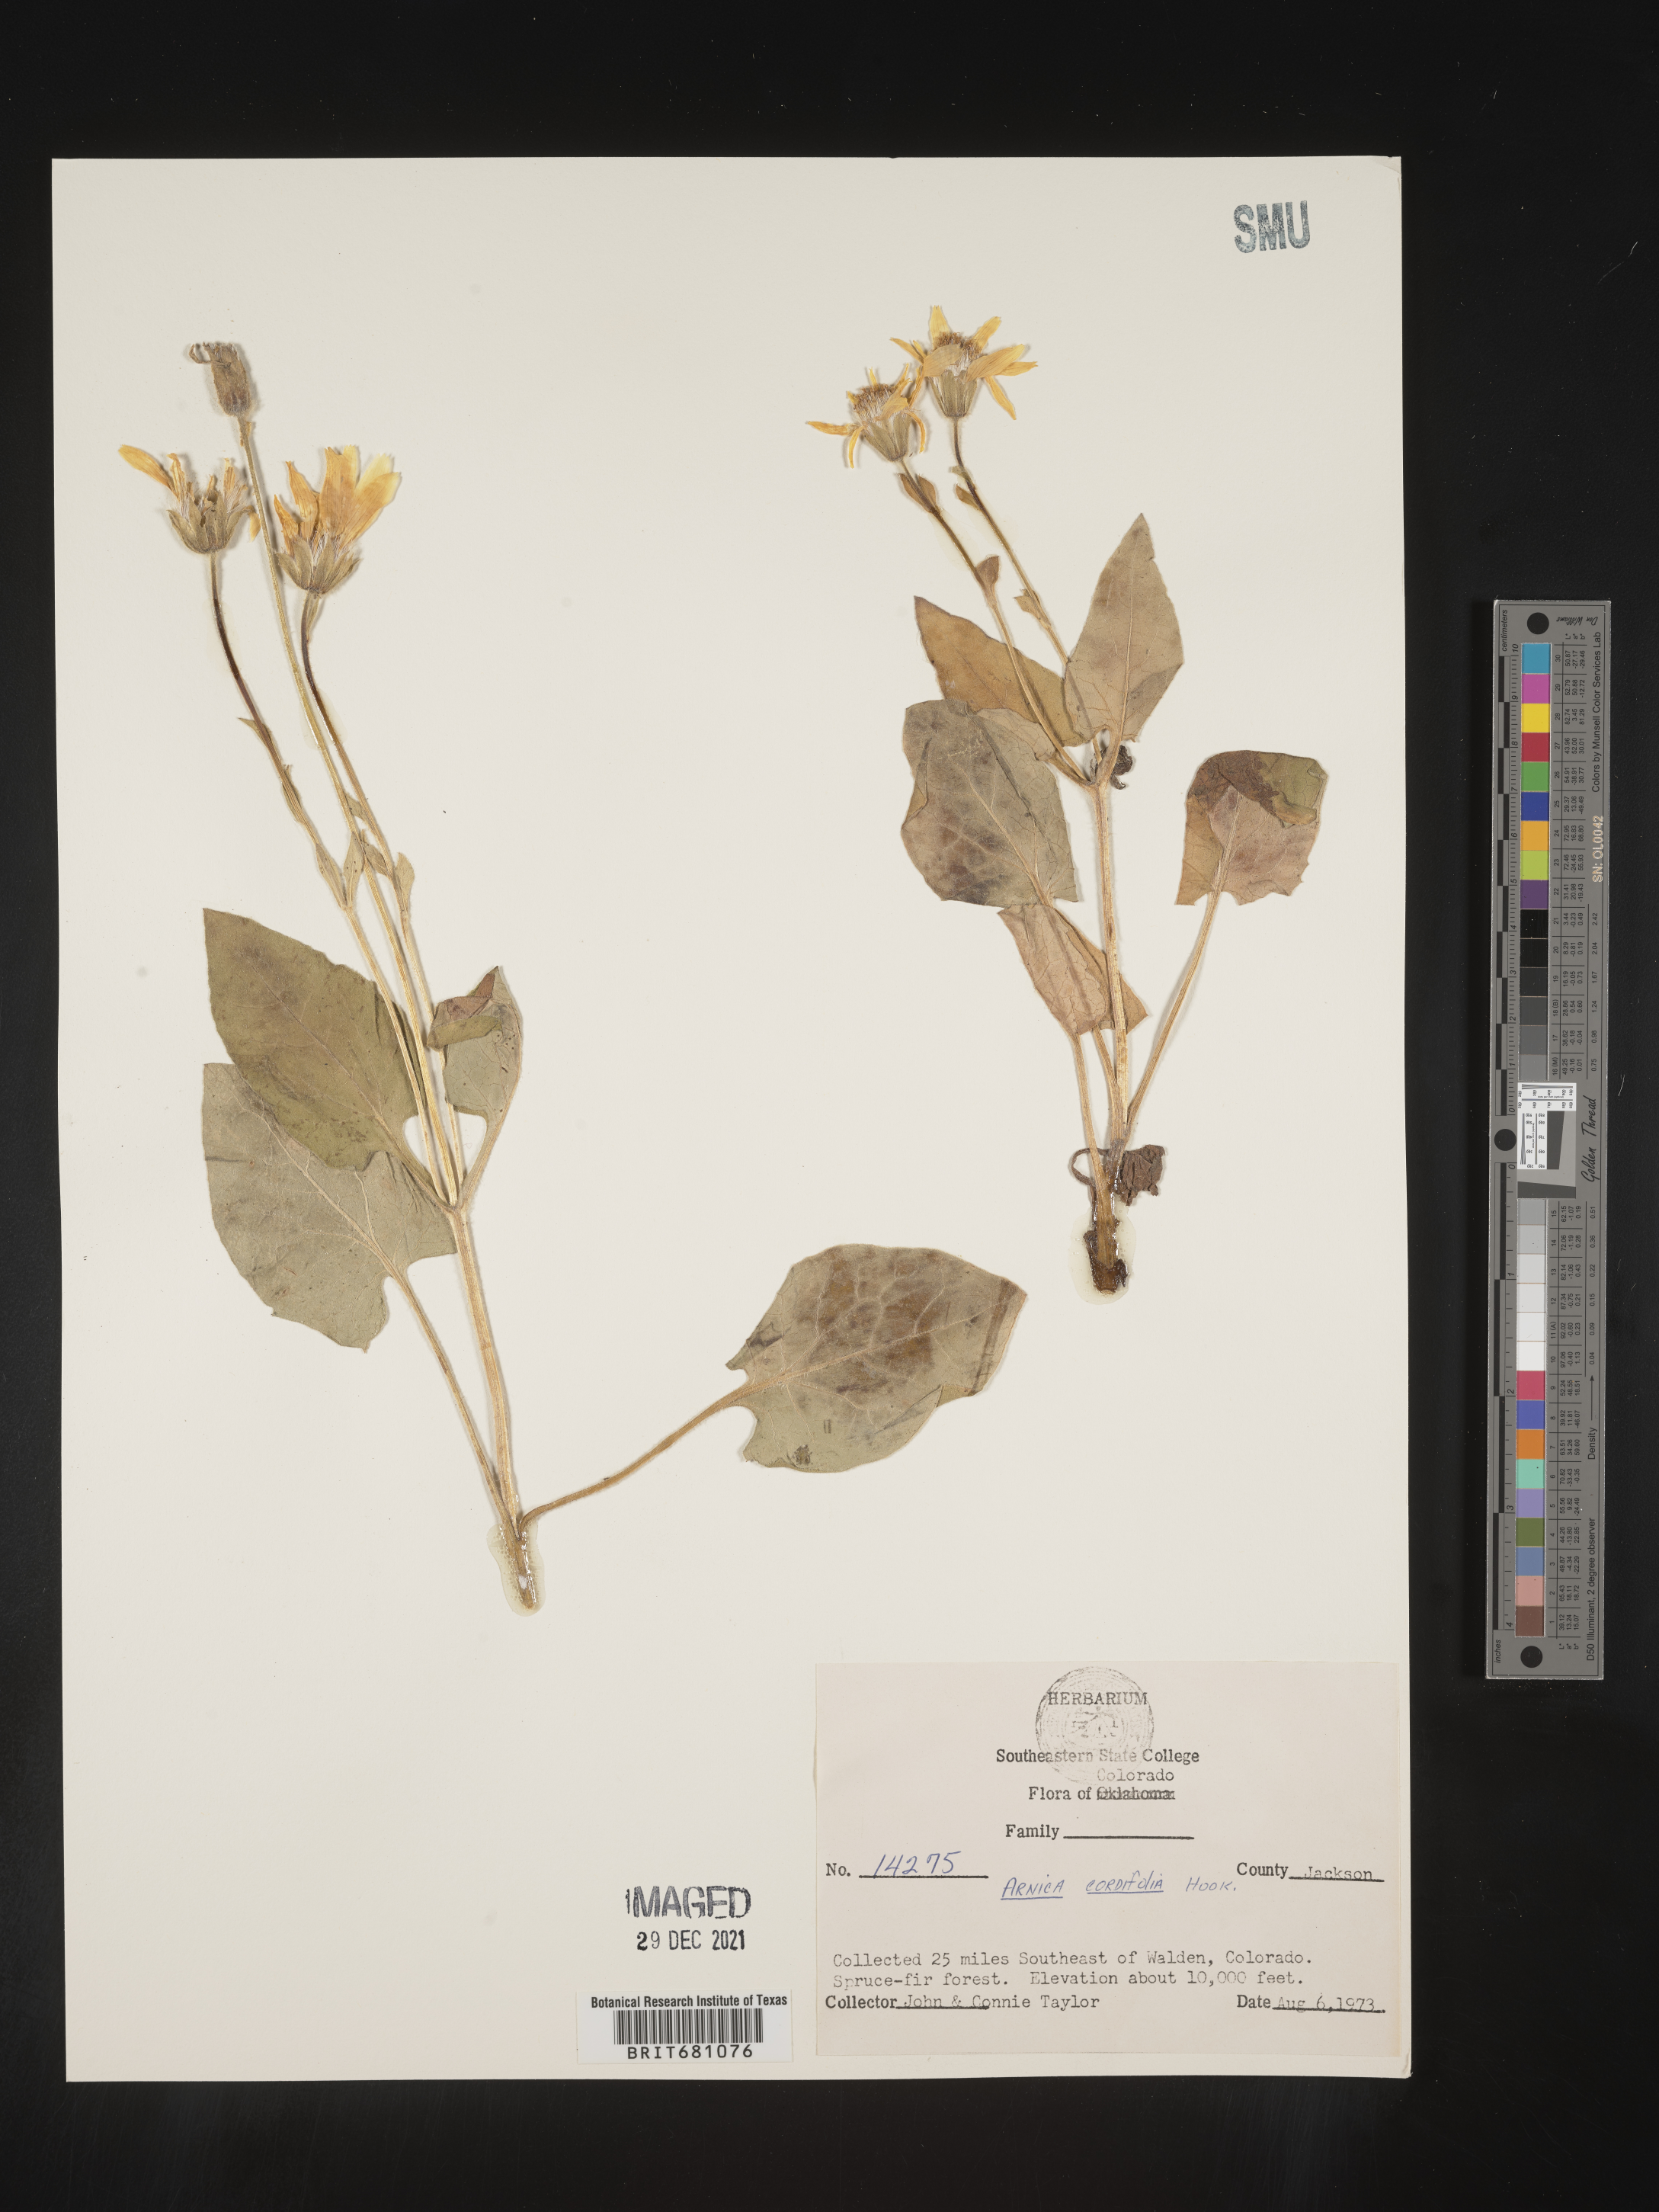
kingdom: Plantae
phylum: Tracheophyta
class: Magnoliopsida
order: Asterales
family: Asteraceae
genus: Arnica
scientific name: Arnica cordifolia
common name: Heart-leaf arnica
